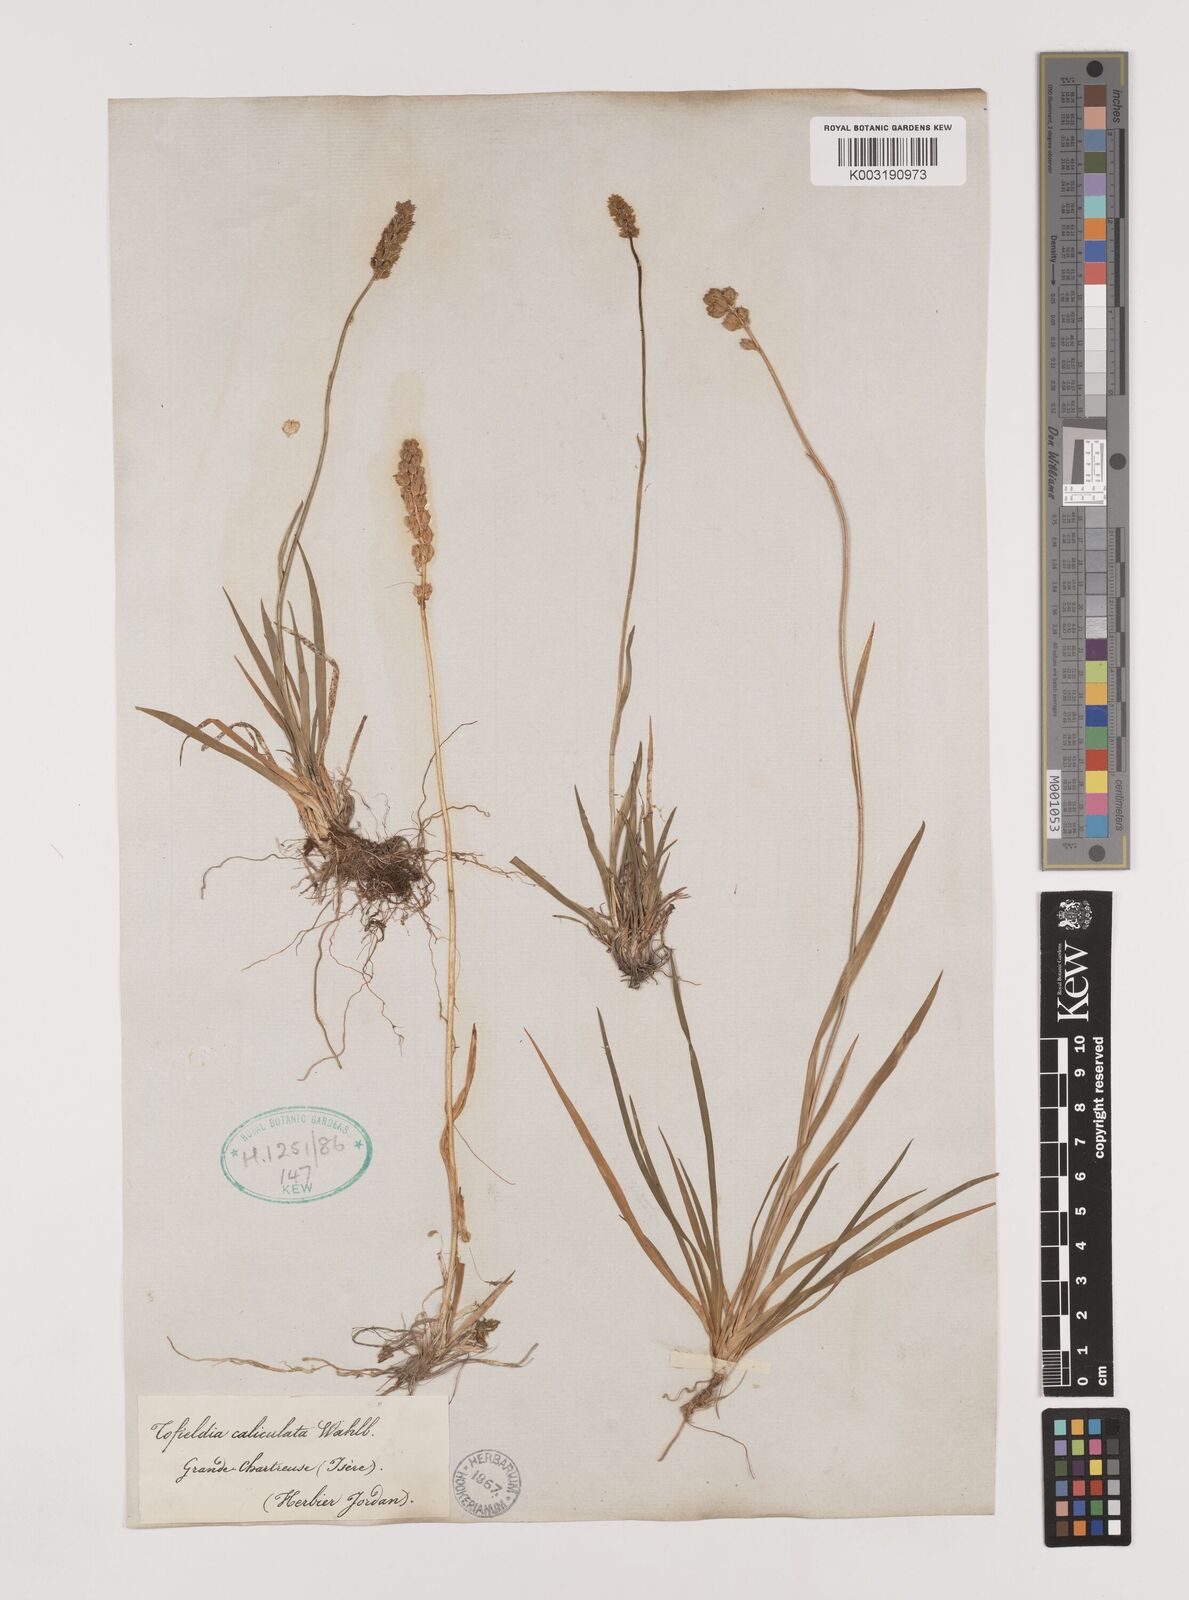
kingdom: Plantae
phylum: Tracheophyta
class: Liliopsida
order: Alismatales
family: Tofieldiaceae
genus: Tofieldia
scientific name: Tofieldia calyculata
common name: German-asphodel
